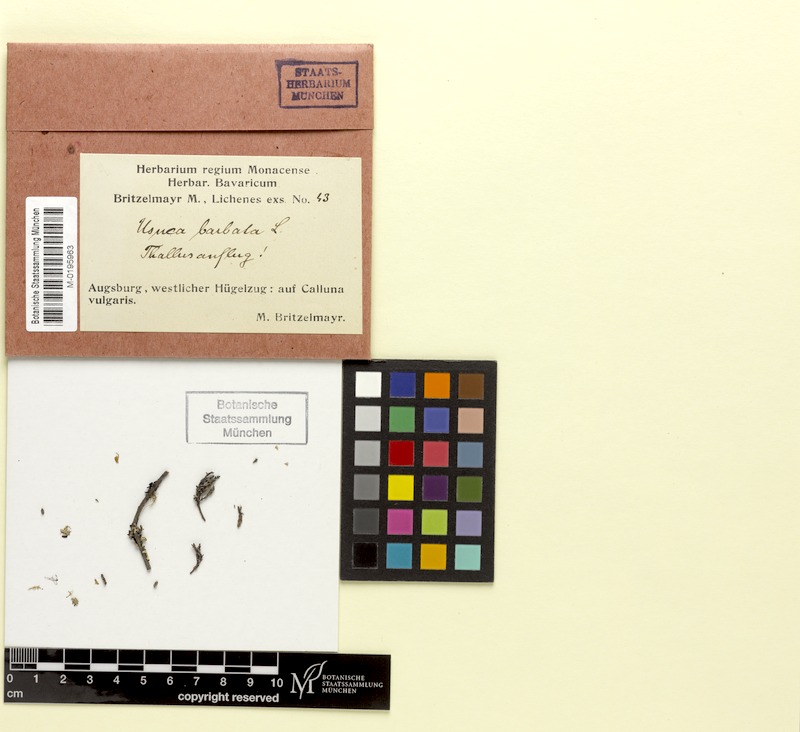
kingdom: Fungi
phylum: Ascomycota
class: Lecanoromycetes
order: Lecanorales
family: Parmeliaceae
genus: Usnea
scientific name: Usnea barbata
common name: Old man's beard lichen
